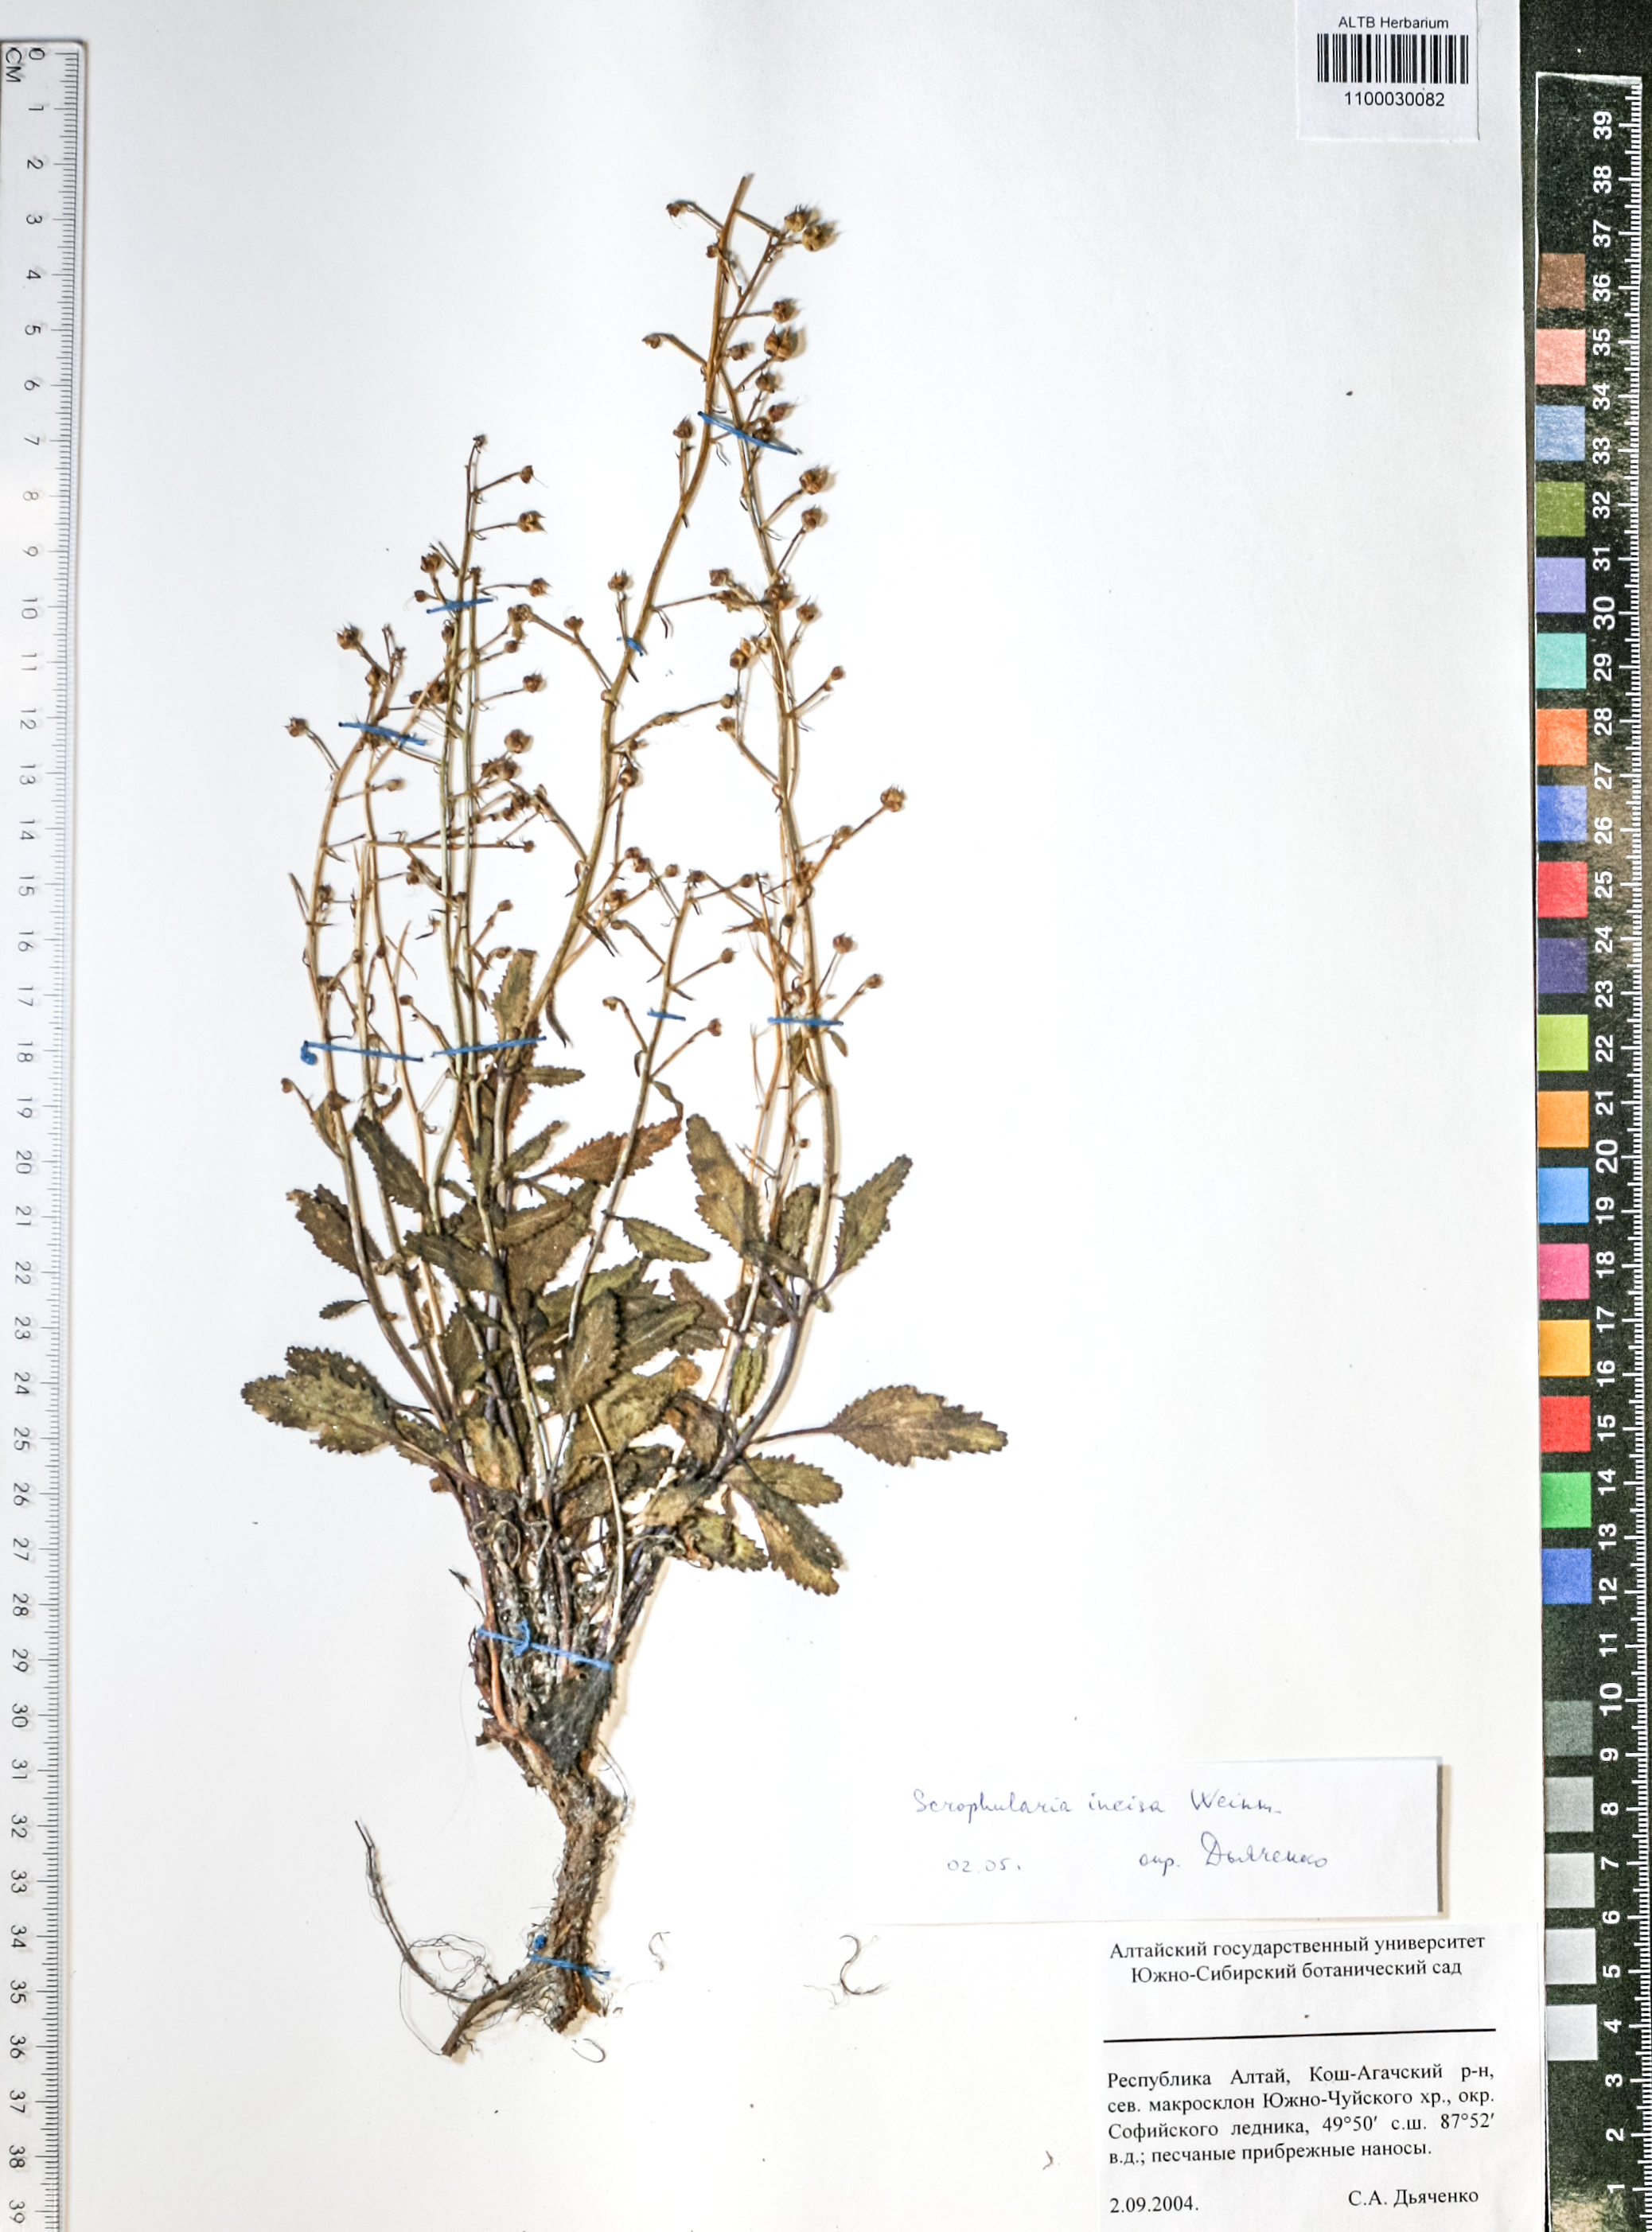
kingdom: Plantae
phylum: Tracheophyta
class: Magnoliopsida
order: Lamiales
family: Scrophulariaceae
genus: Scrophularia
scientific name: Scrophularia incisa
